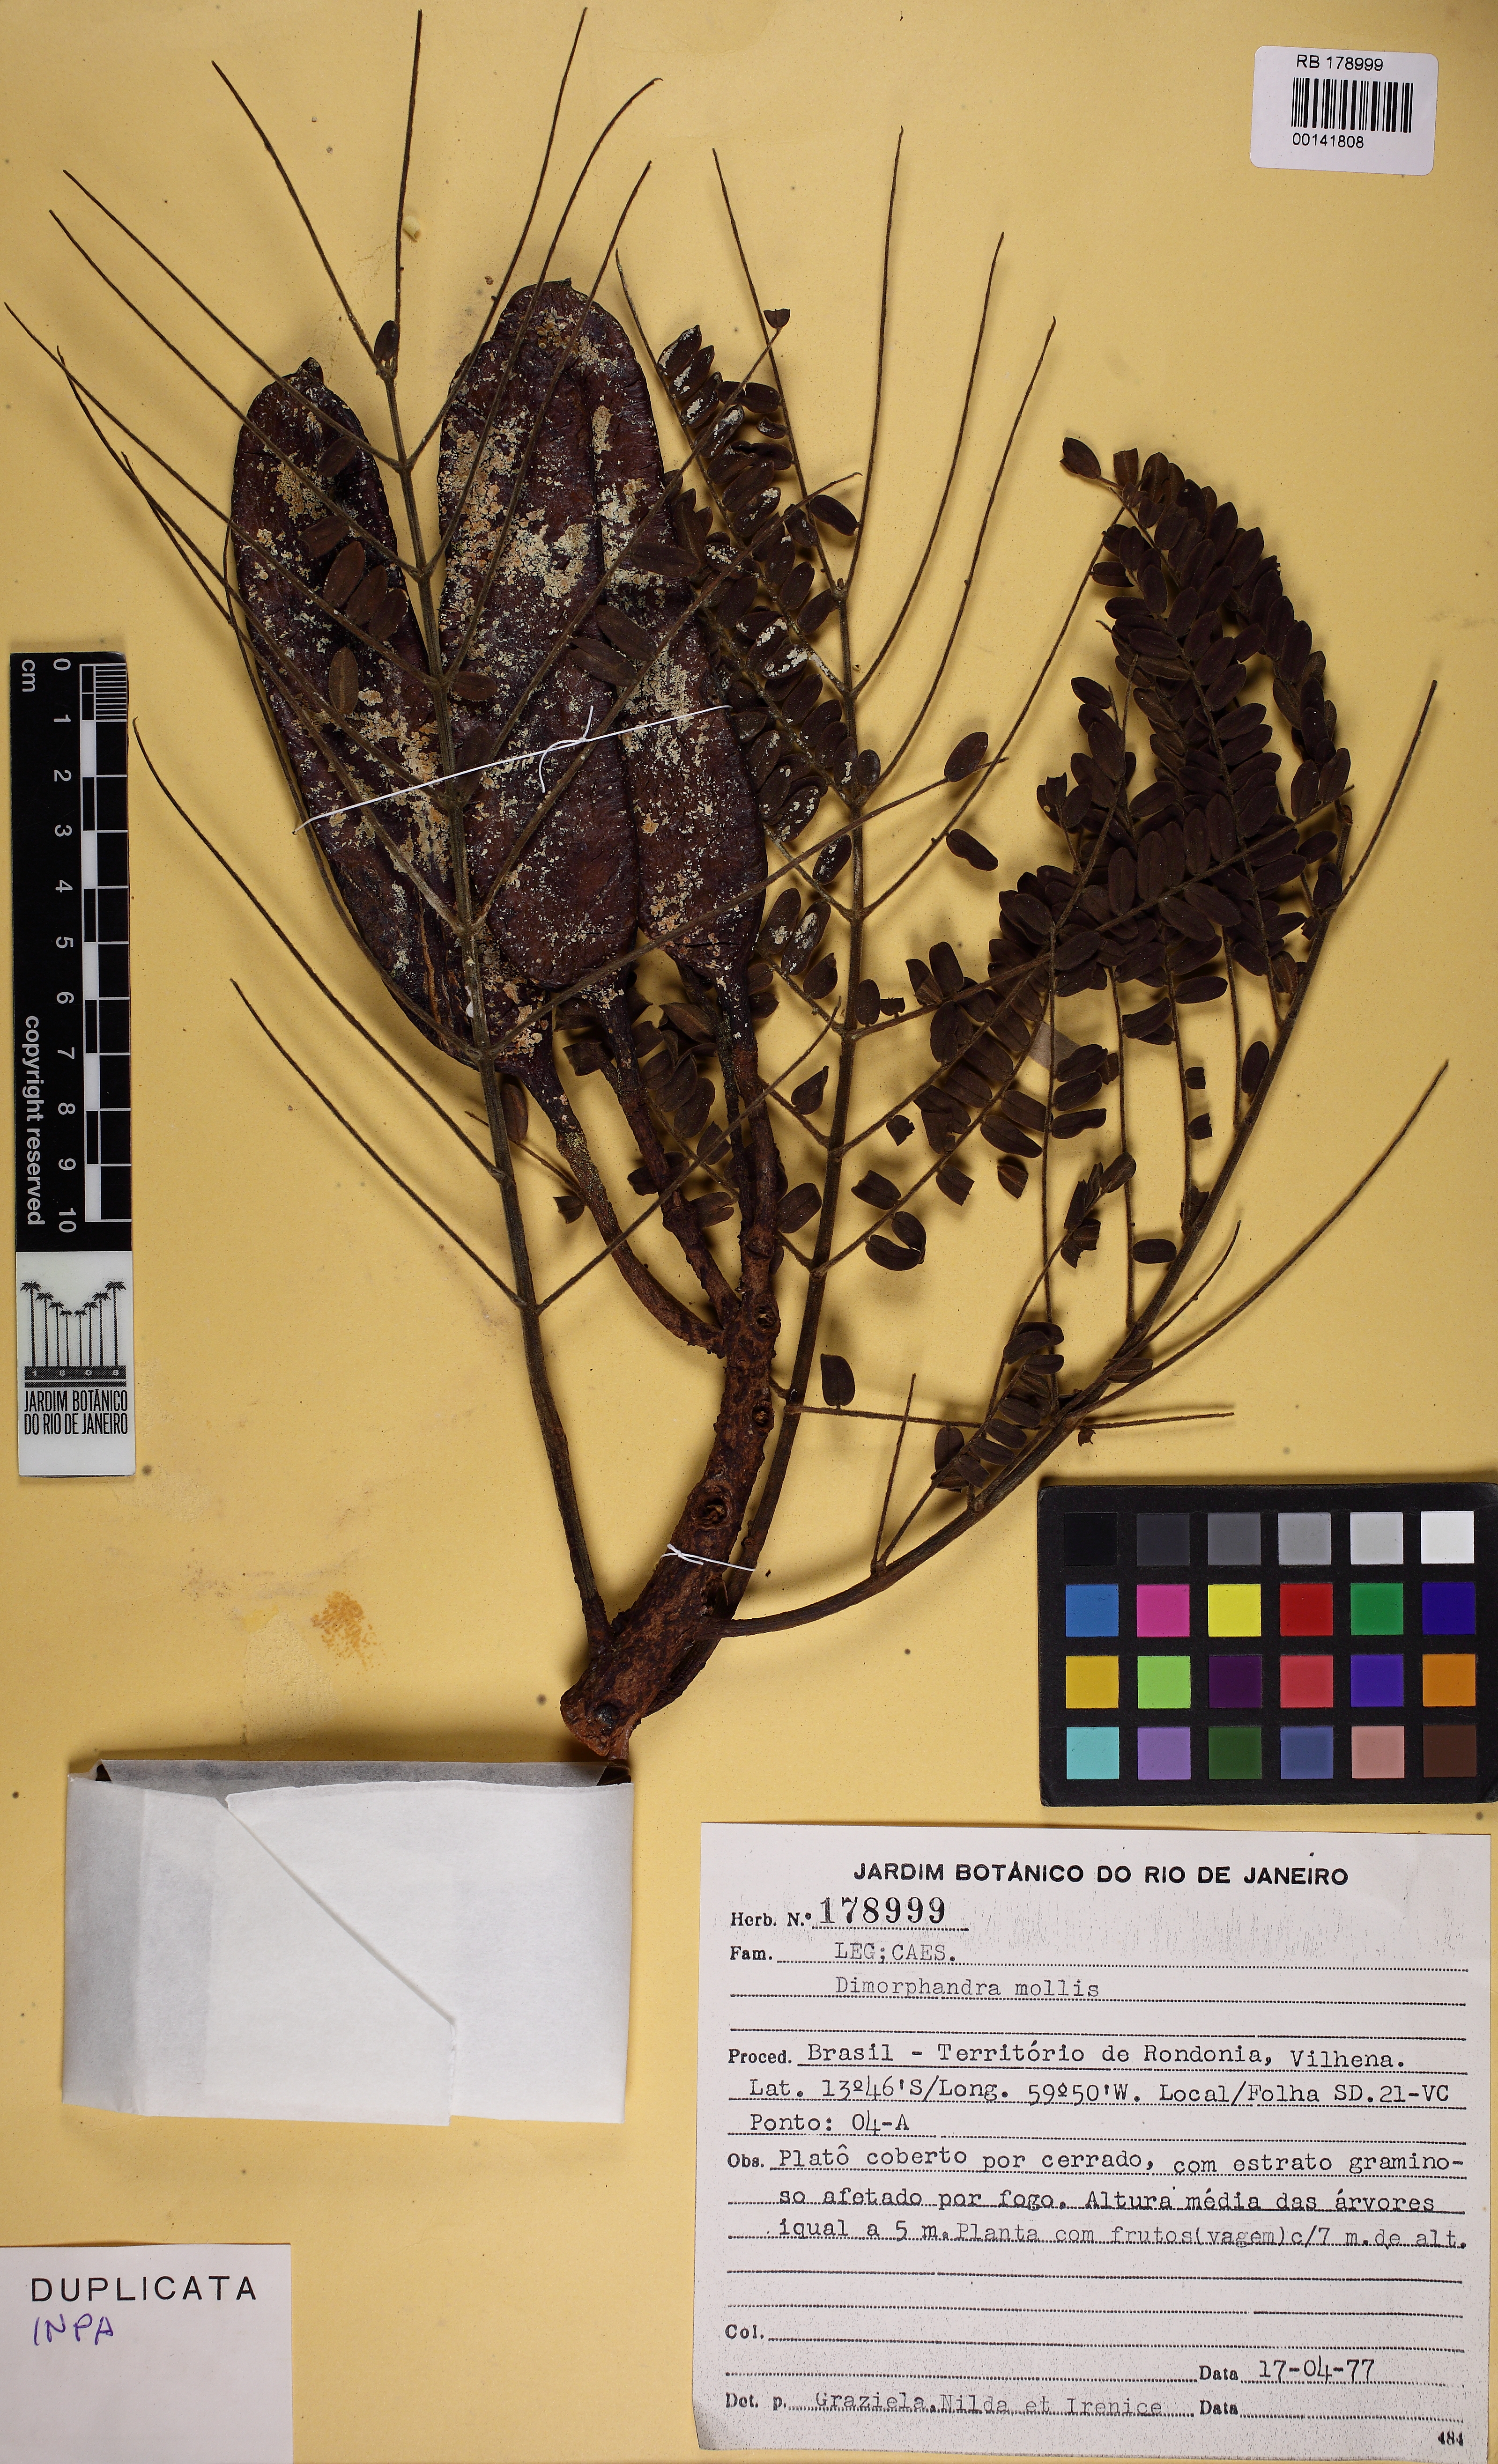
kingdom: Plantae
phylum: Tracheophyta
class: Magnoliopsida
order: Fabales
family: Fabaceae
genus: Dimorphandra
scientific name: Dimorphandra mollis
